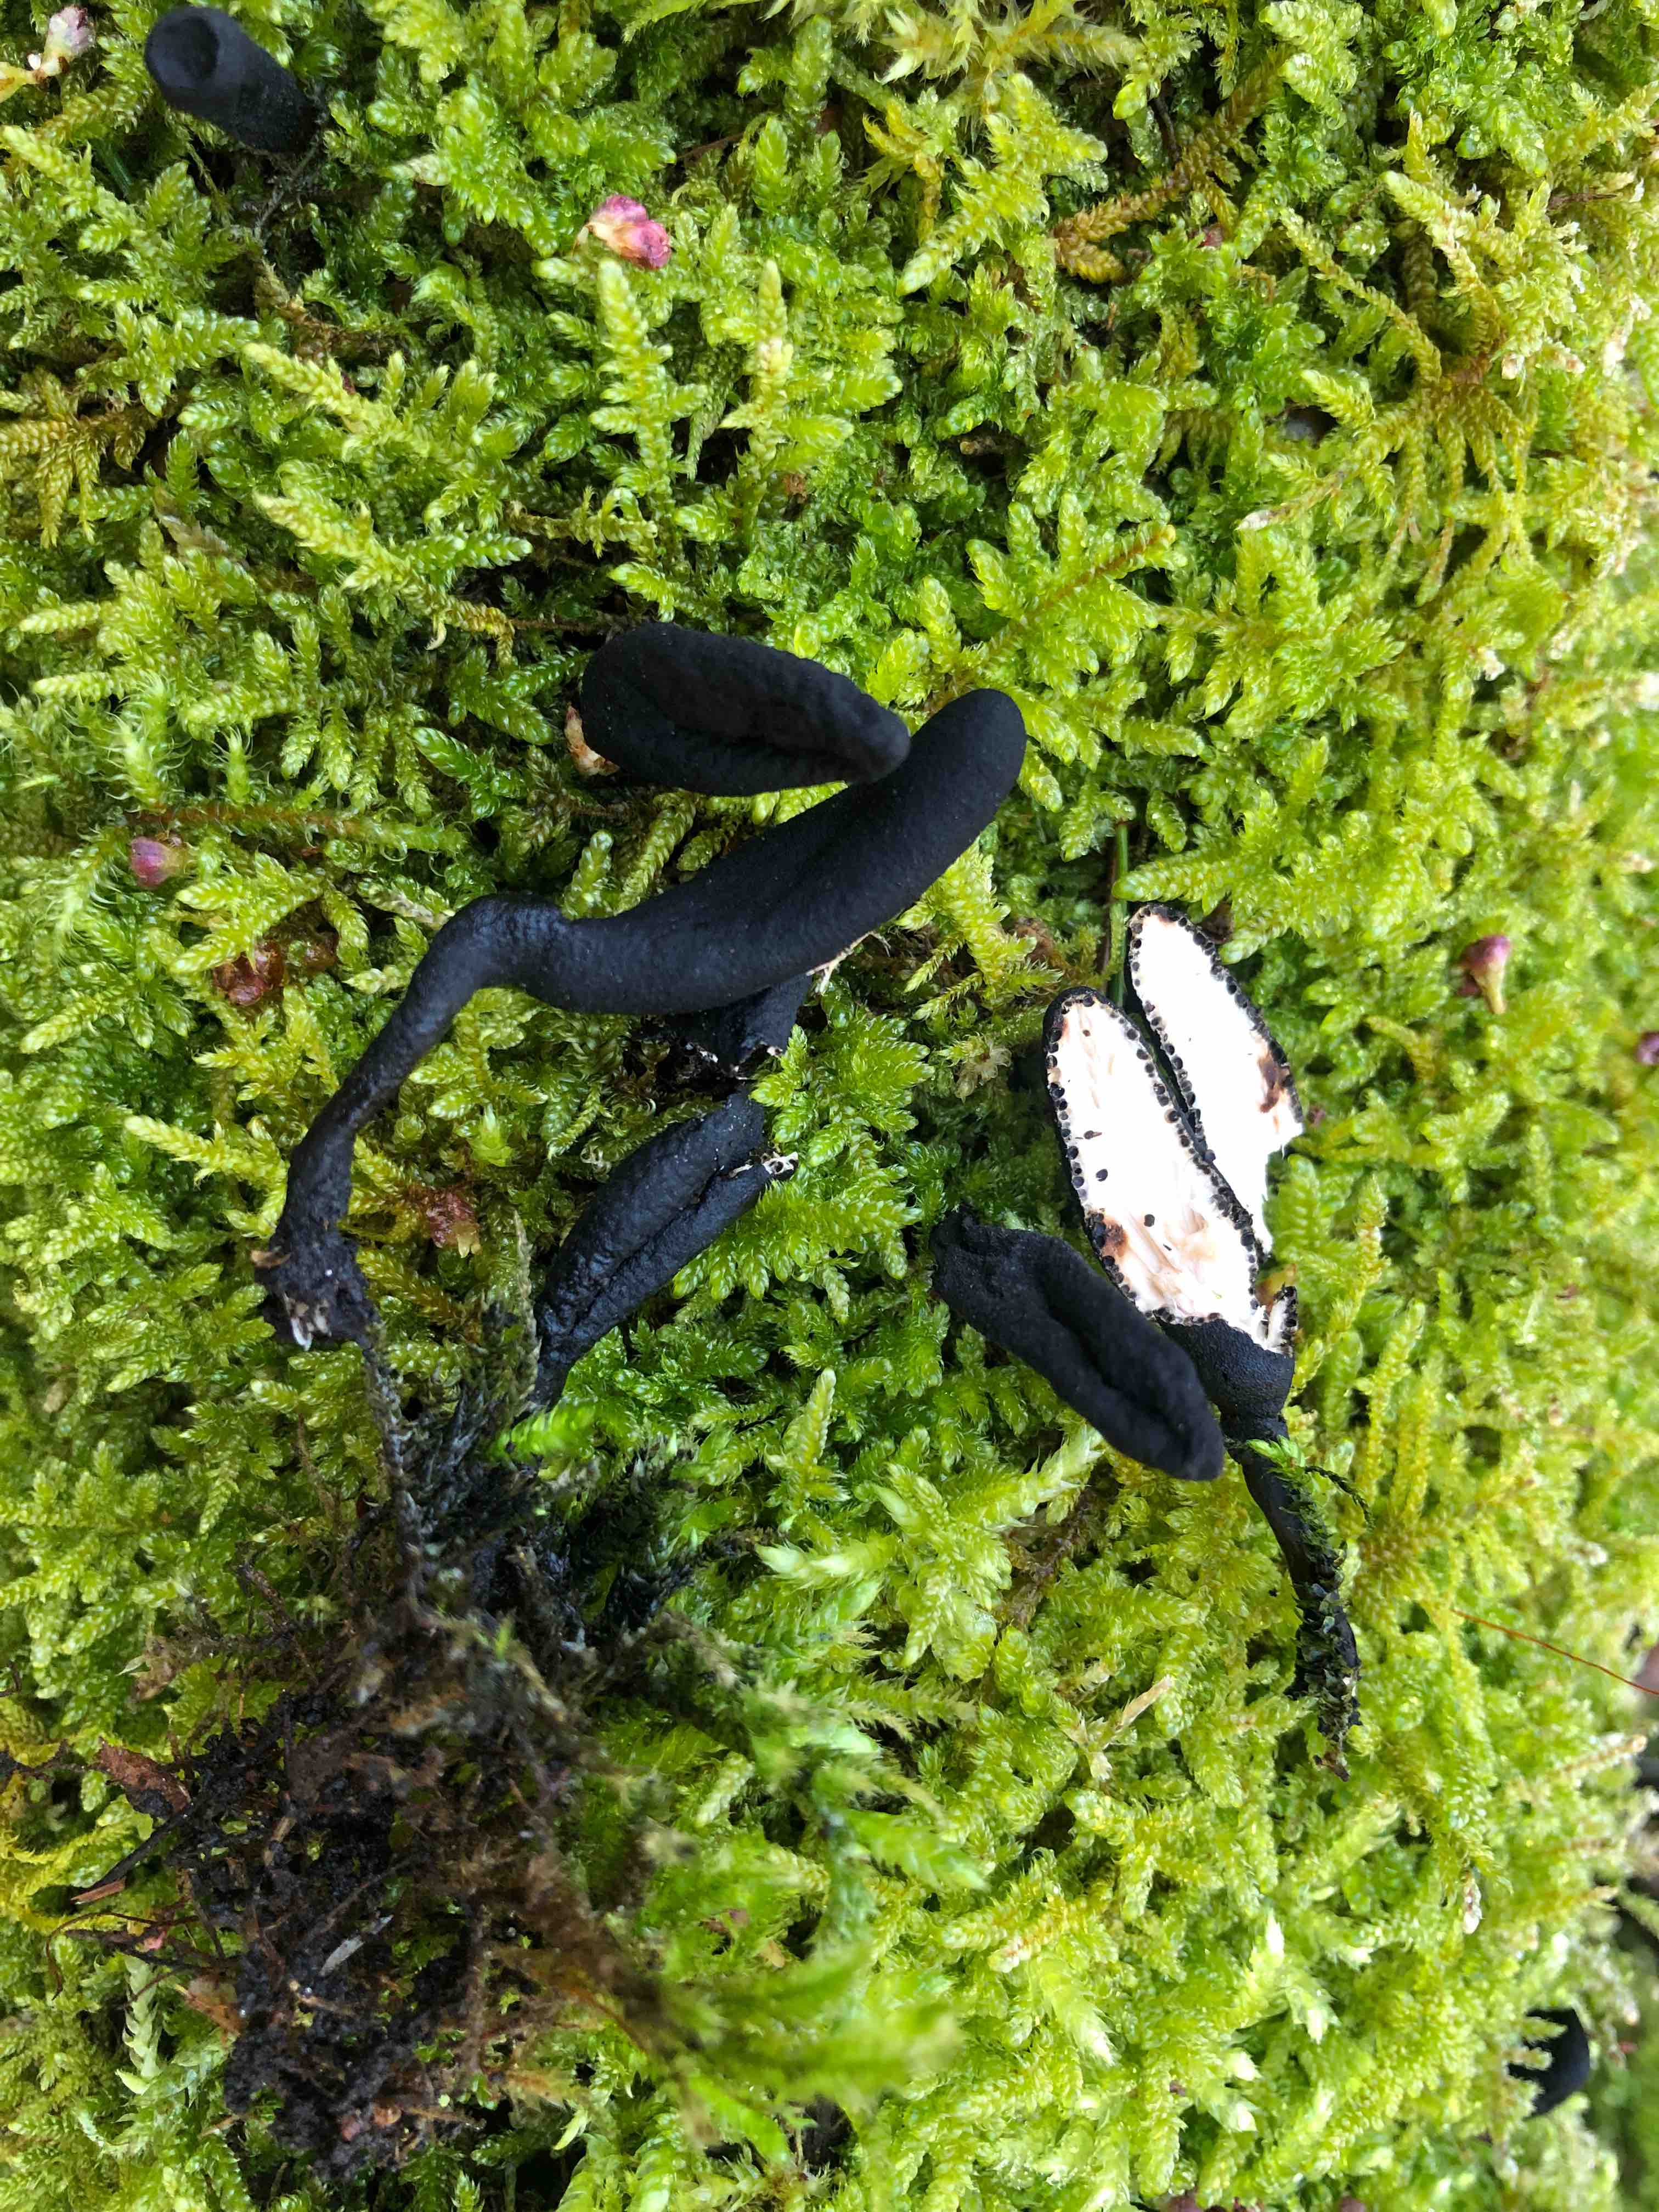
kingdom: Fungi
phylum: Ascomycota
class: Sordariomycetes
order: Xylariales
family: Xylariaceae
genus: Xylaria
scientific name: Xylaria longipes
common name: slank stødsvamp
